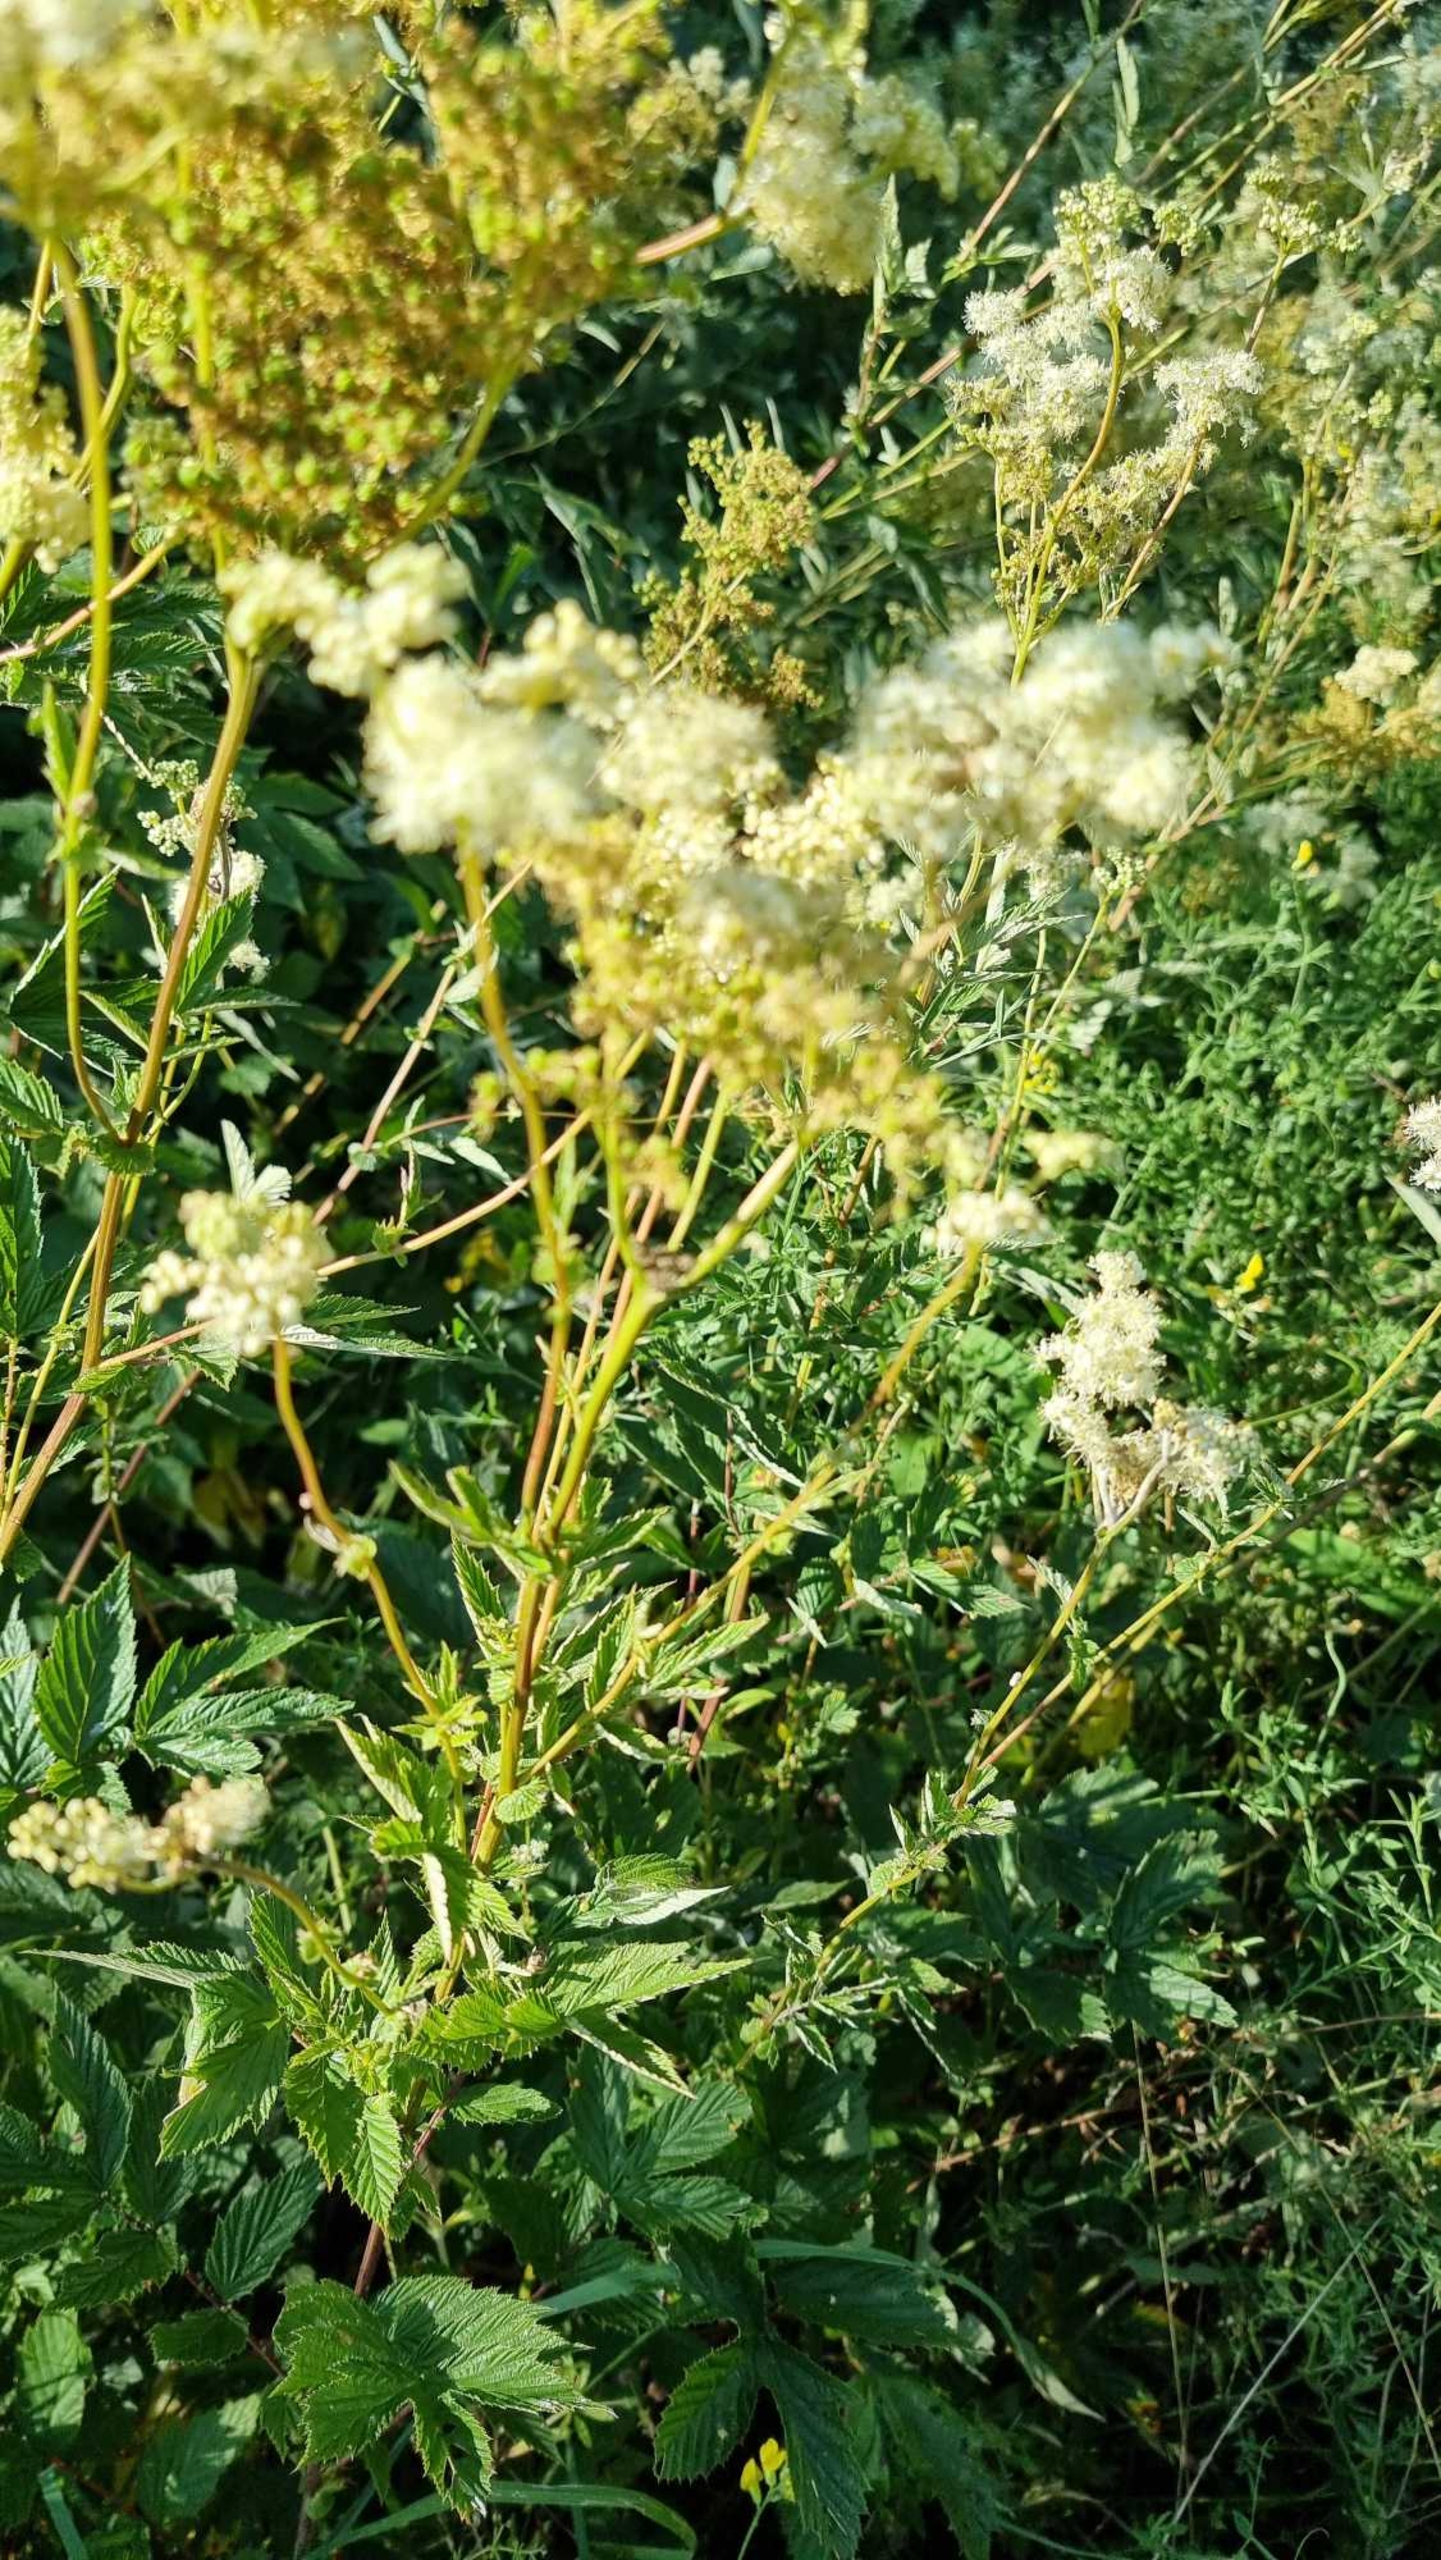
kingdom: Plantae
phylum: Tracheophyta
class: Magnoliopsida
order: Rosales
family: Rosaceae
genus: Filipendula
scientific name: Filipendula ulmaria
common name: Almindelig mjødurt
